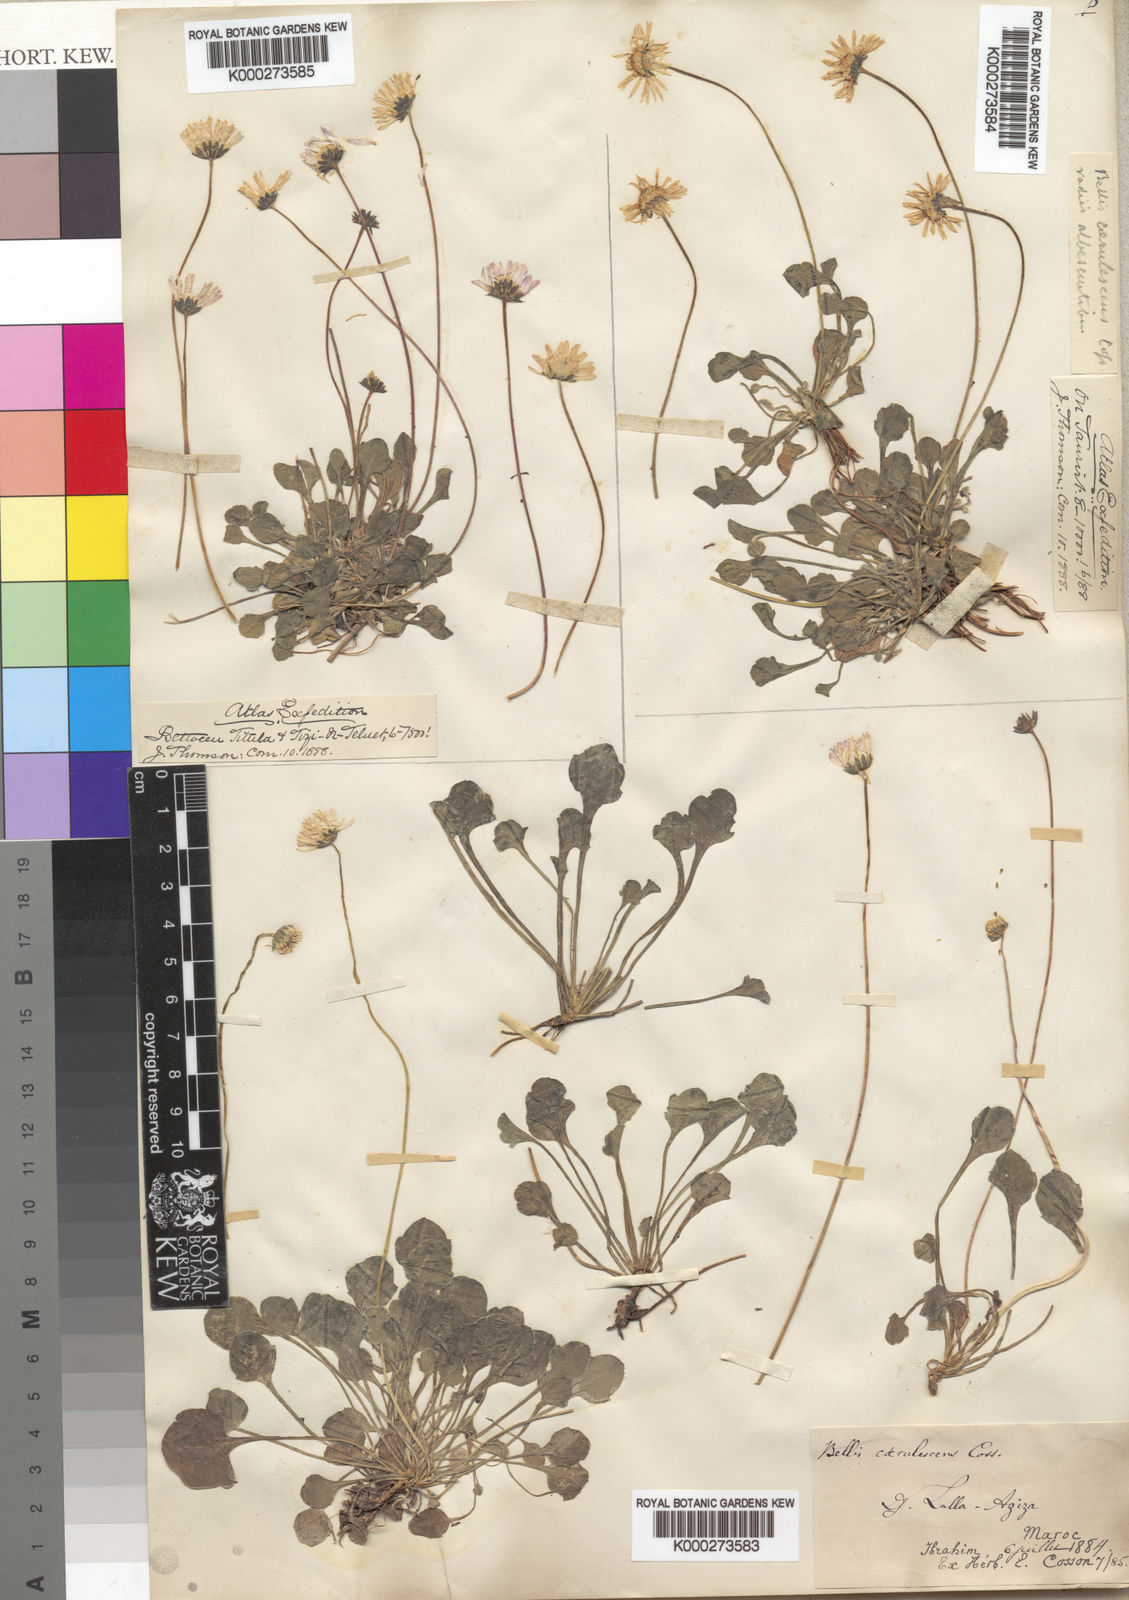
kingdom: Plantae
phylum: Tracheophyta
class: Magnoliopsida
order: Asterales
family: Asteraceae
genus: Bellis
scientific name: Bellis caerulescens
